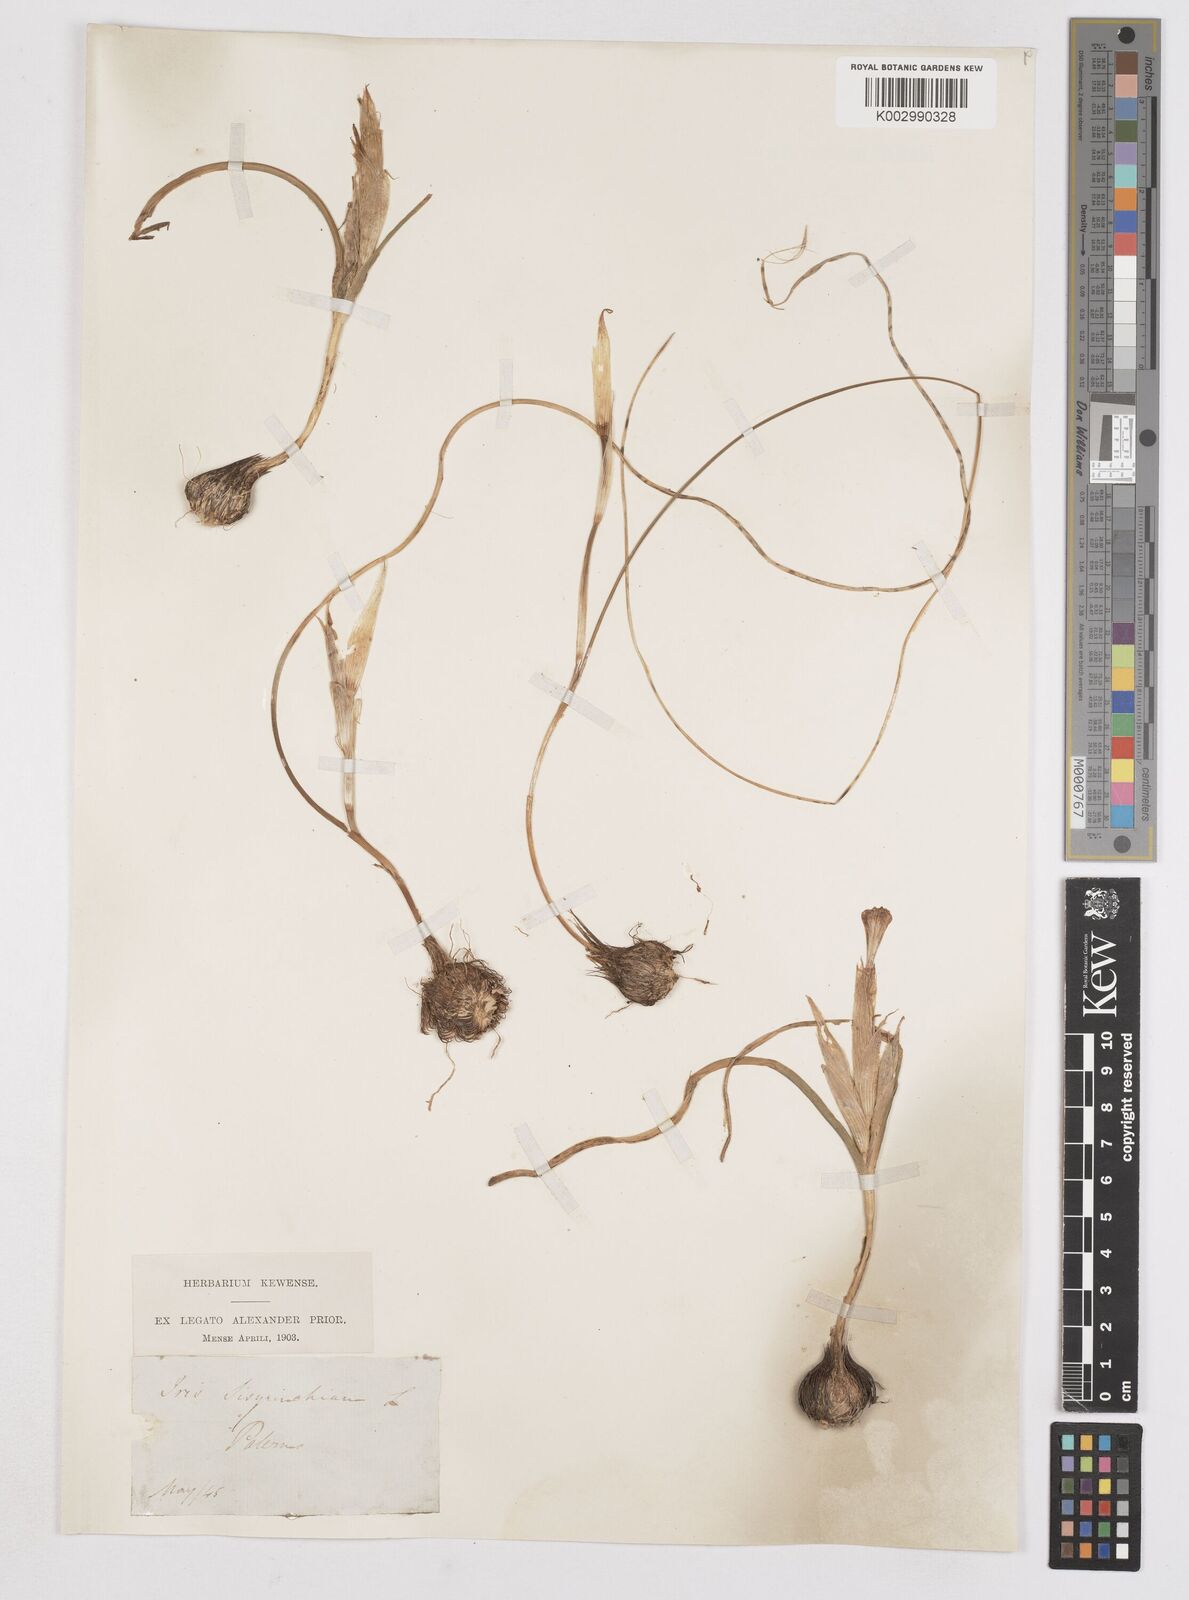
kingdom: Plantae
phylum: Tracheophyta
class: Liliopsida
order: Asparagales
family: Iridaceae
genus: Moraea
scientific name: Moraea sisyrinchium
